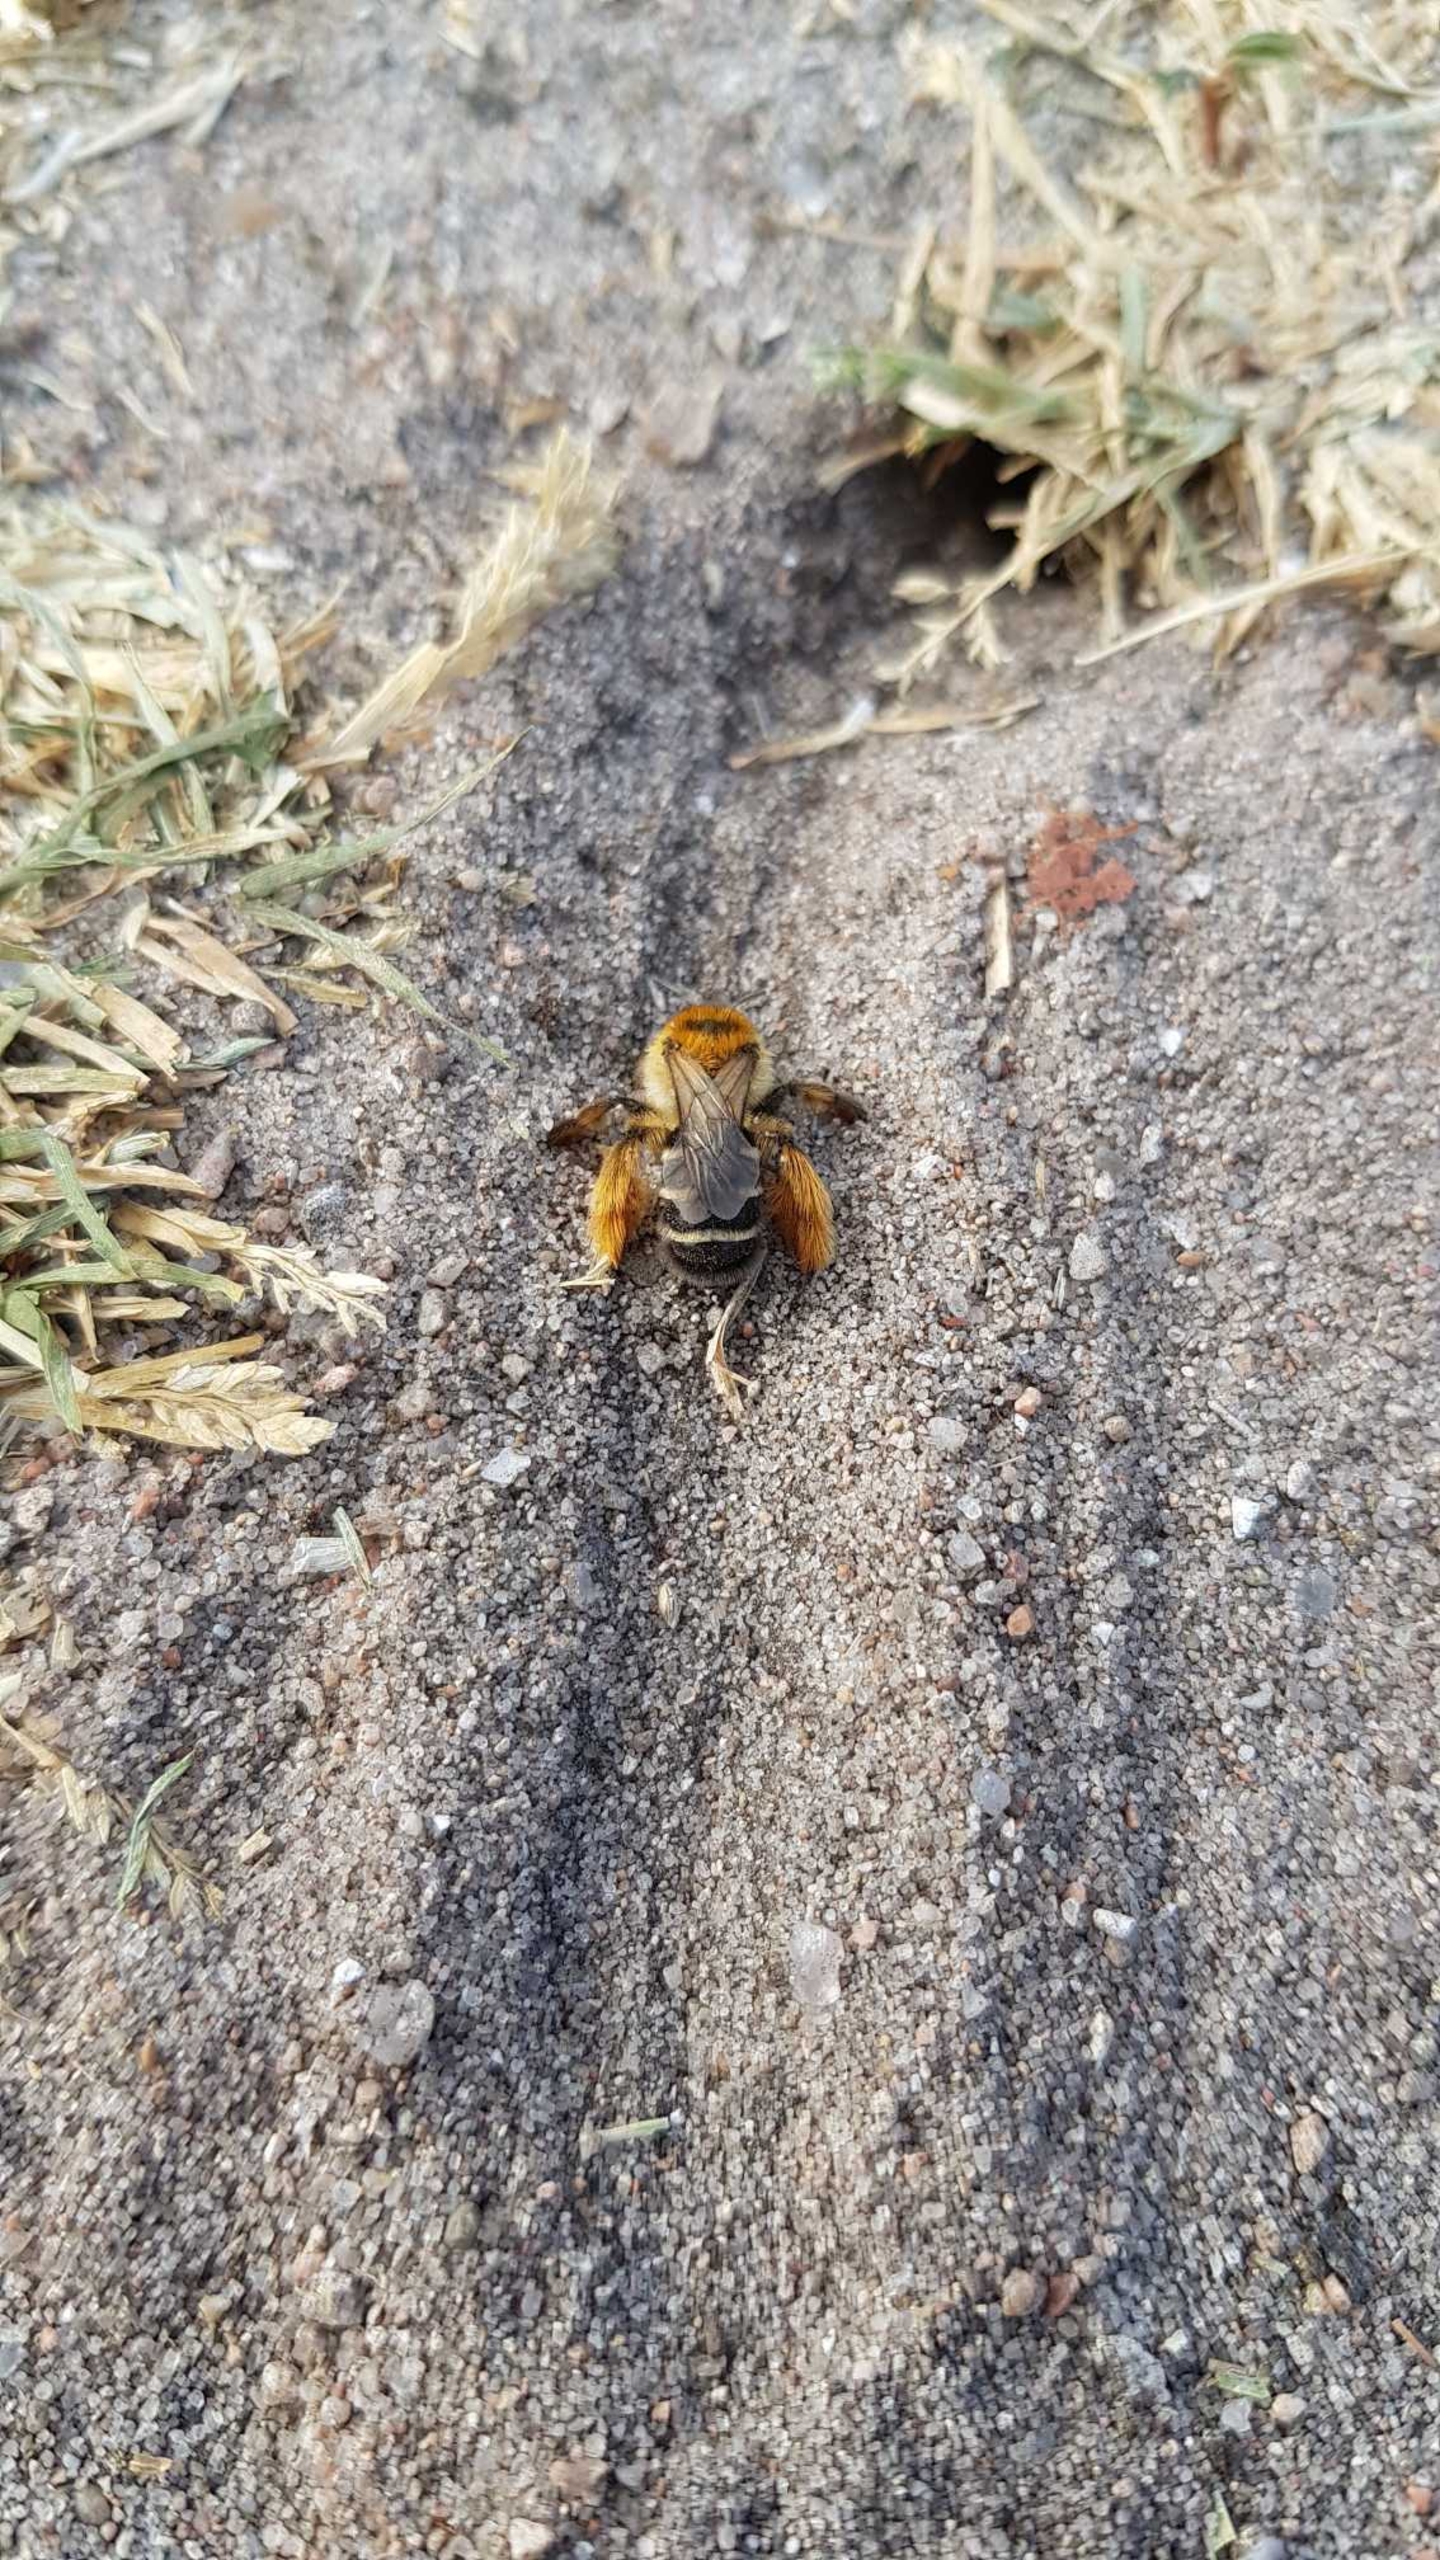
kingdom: Animalia
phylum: Arthropoda
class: Insecta
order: Hymenoptera
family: Melittidae
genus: Dasypoda
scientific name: Dasypoda hirtipes
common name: Pragtbuksebi
